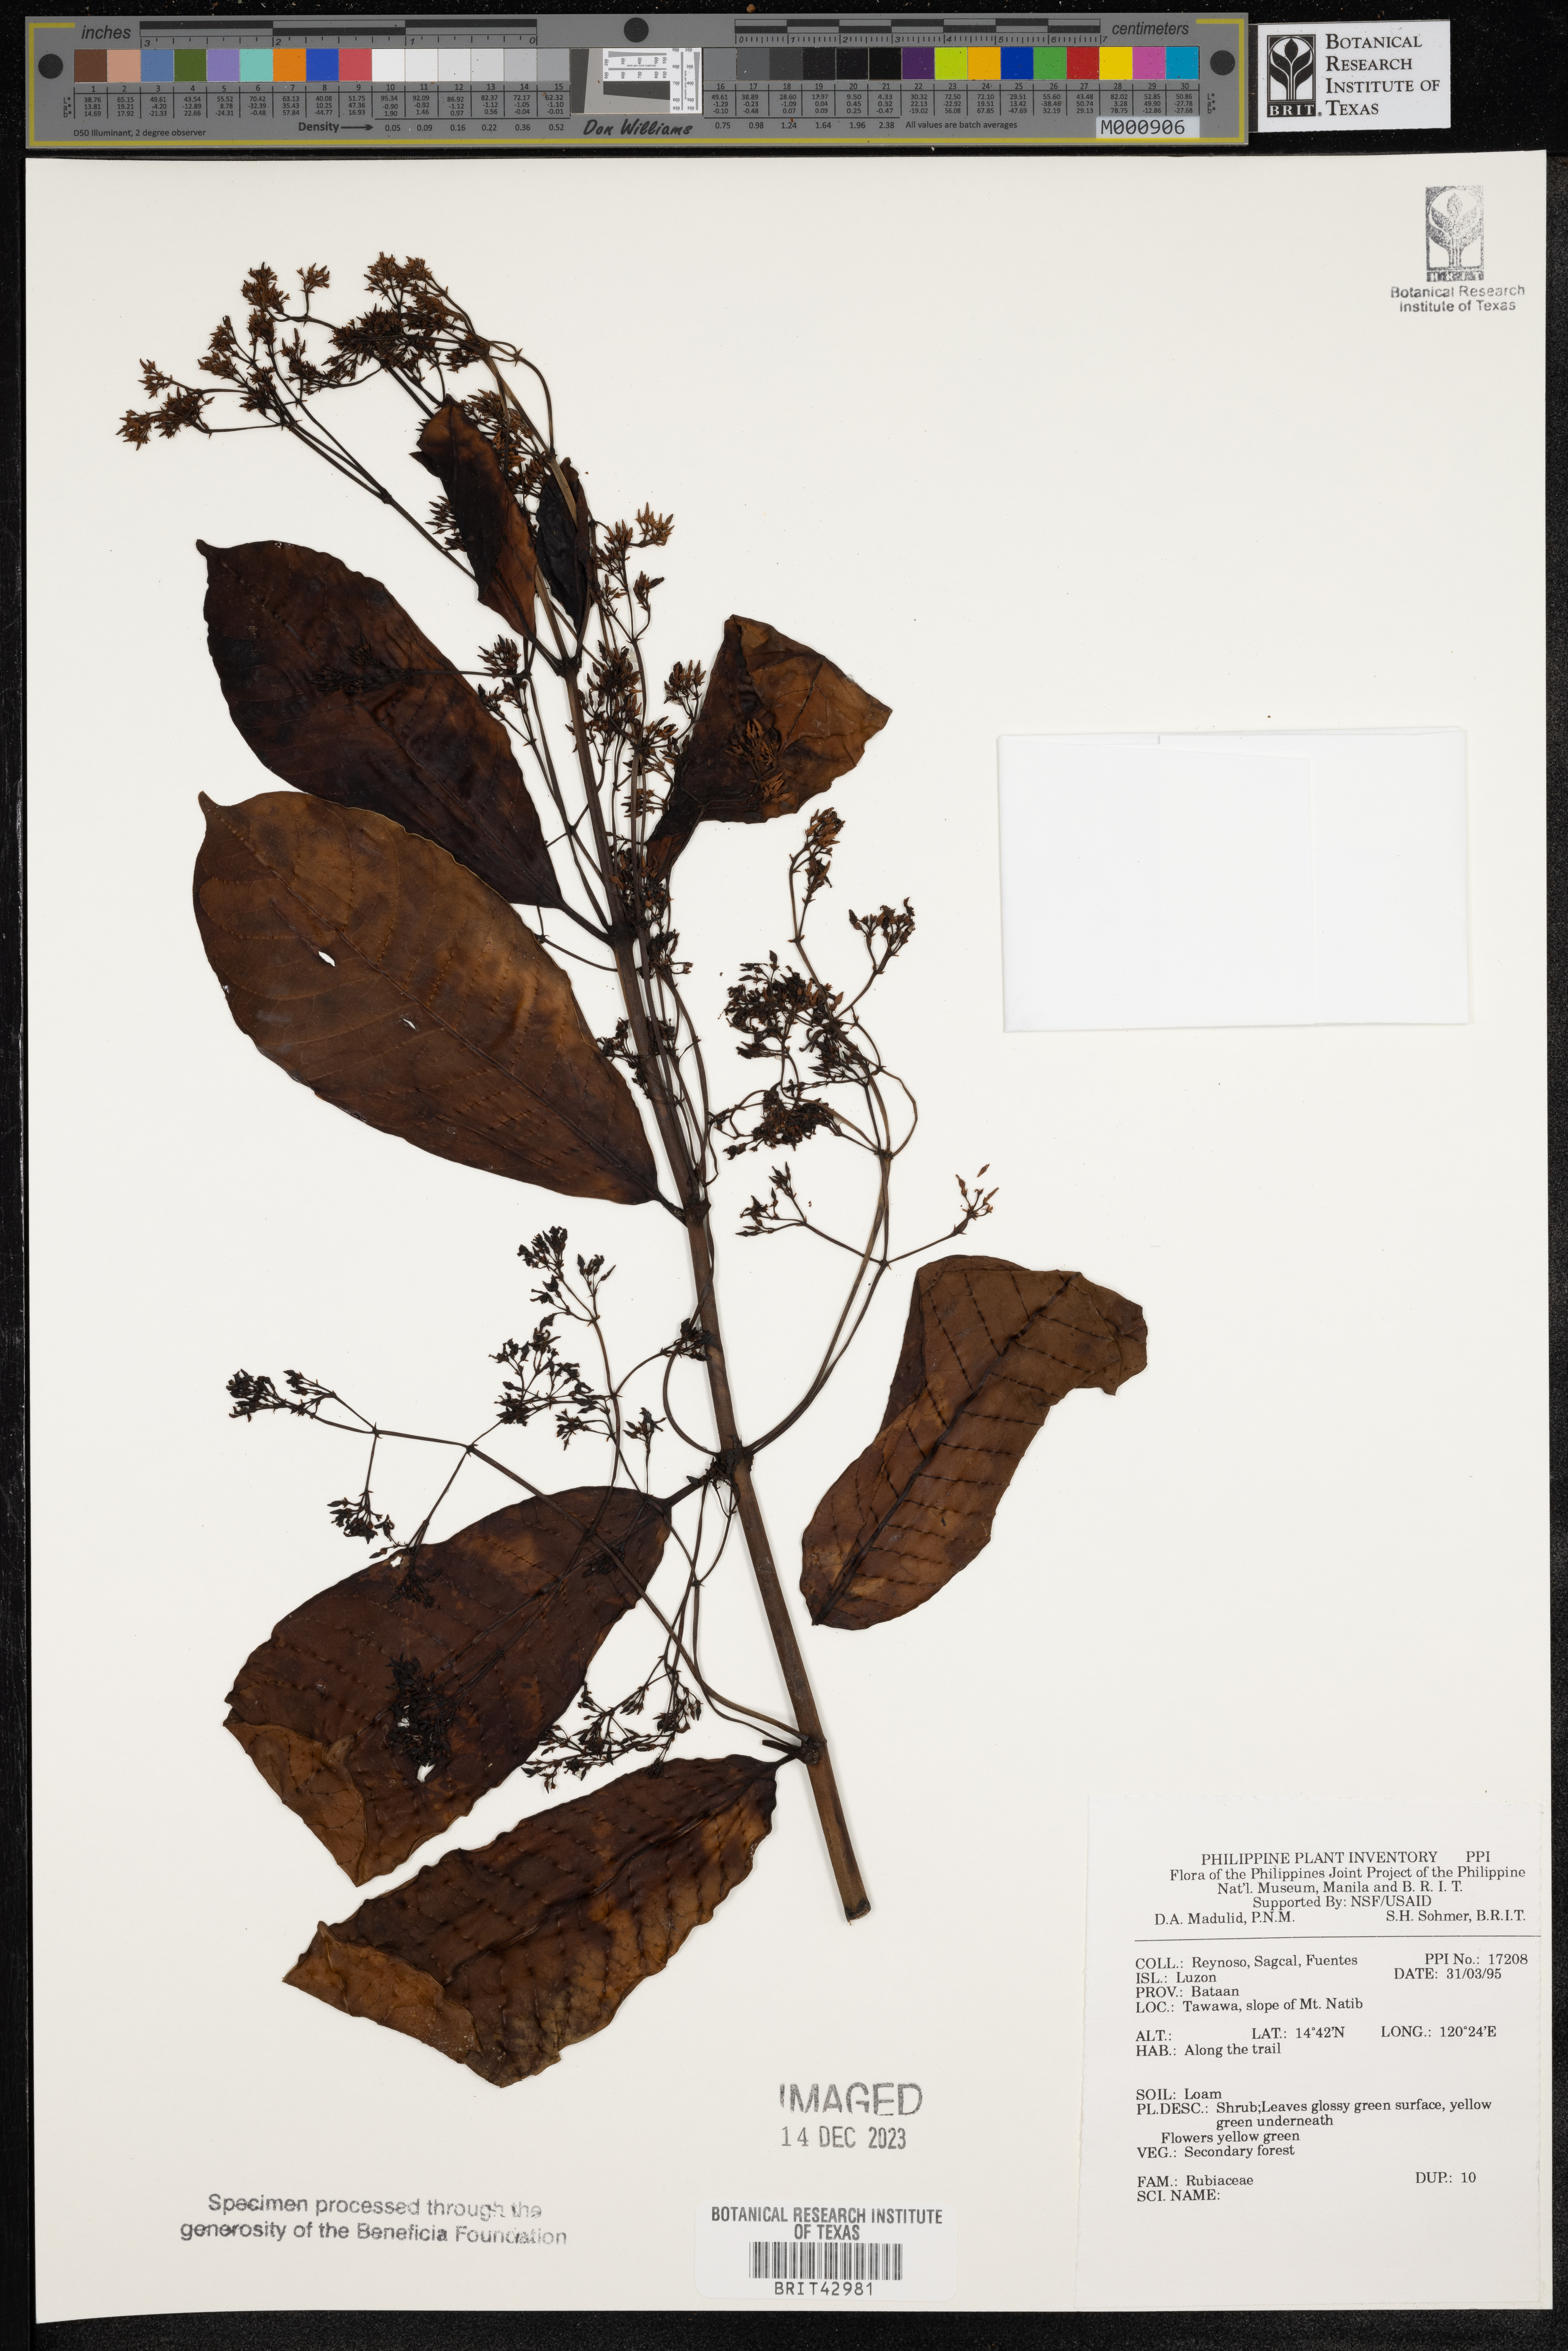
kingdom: Plantae
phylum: Tracheophyta
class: Magnoliopsida
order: Gentianales
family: Rubiaceae
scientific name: Rubiaceae
